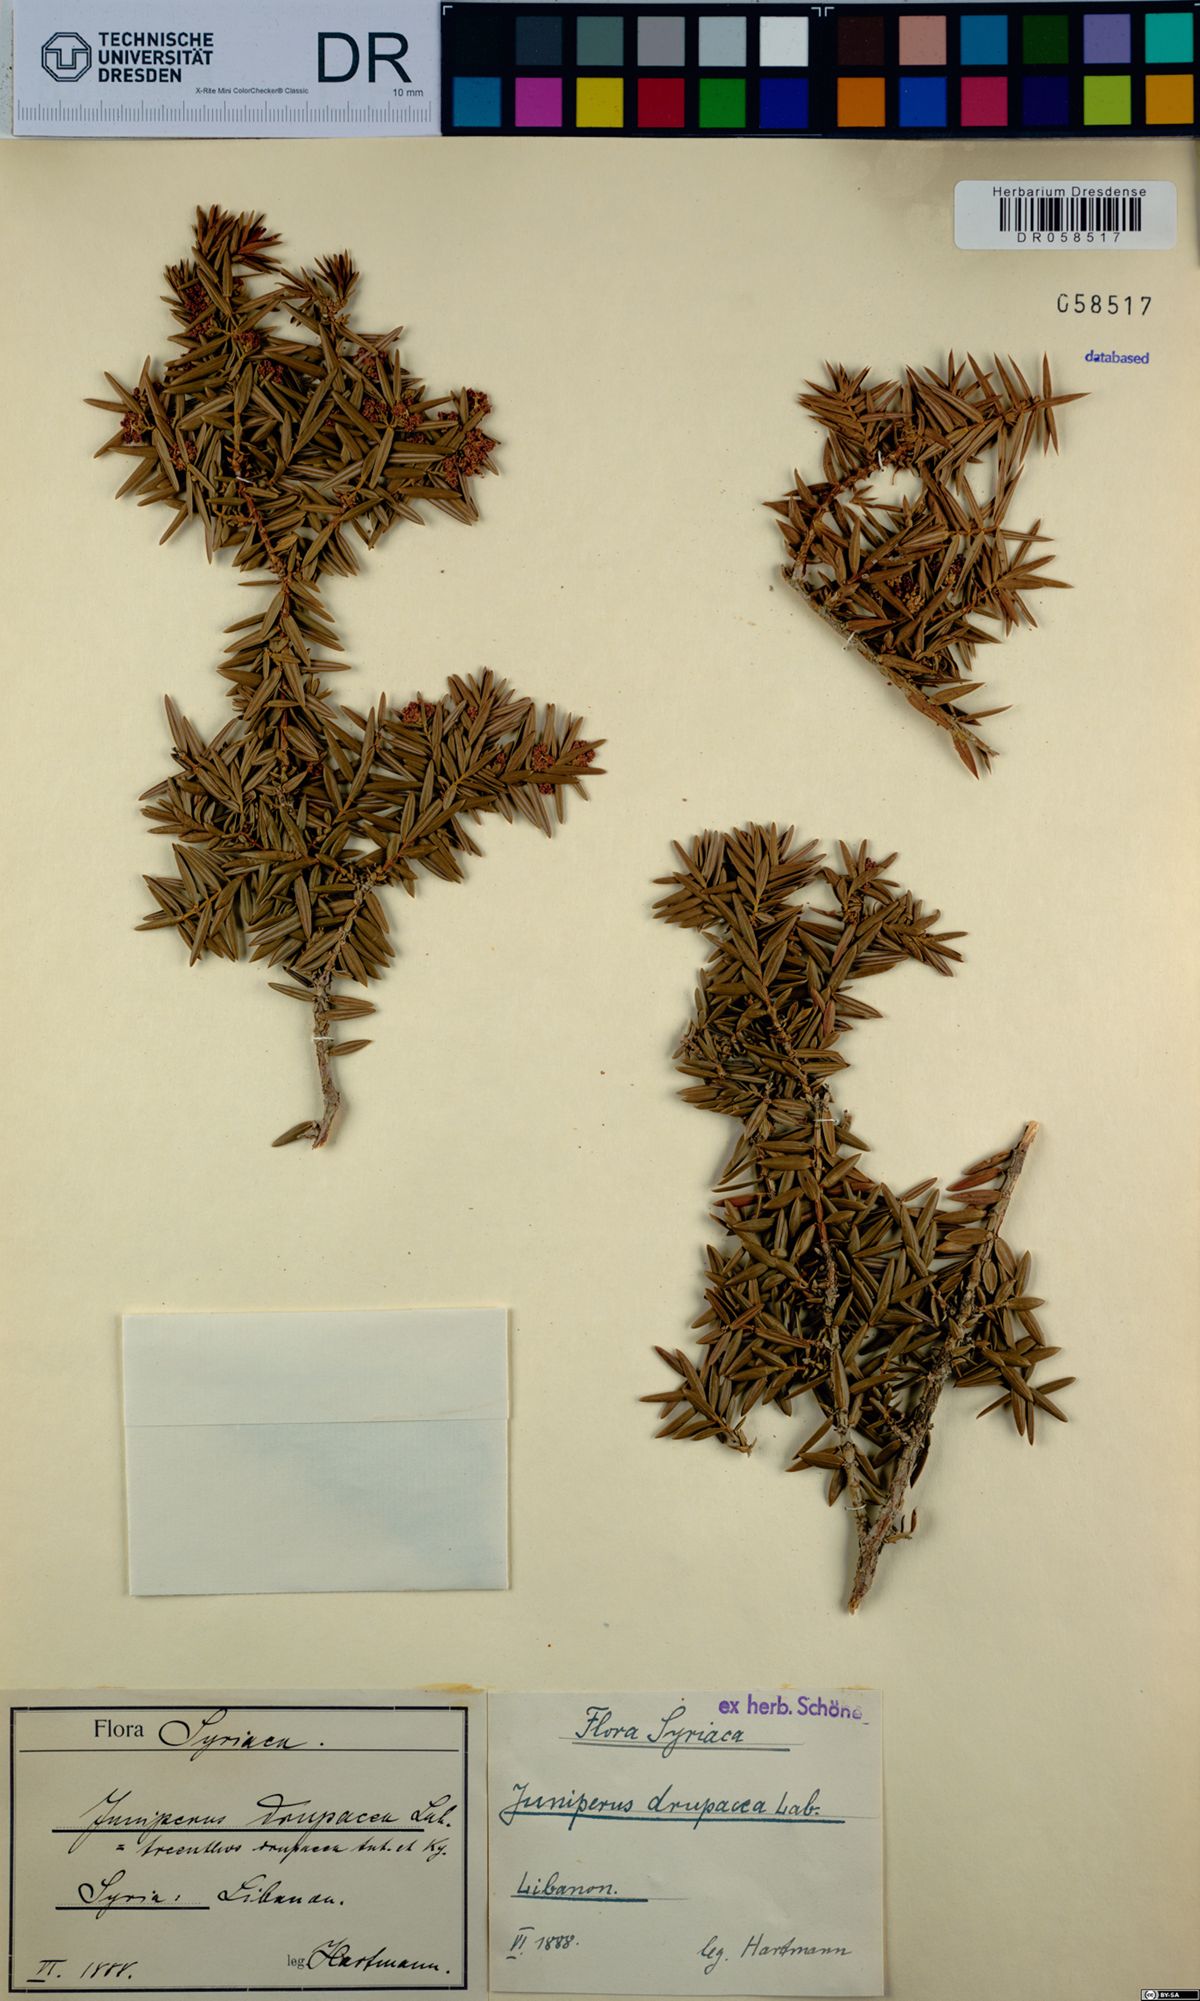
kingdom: Plantae
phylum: Tracheophyta
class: Pinopsida
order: Pinales
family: Cupressaceae
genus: Juniperus
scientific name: Juniperus drupacea
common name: Syrian juniper
